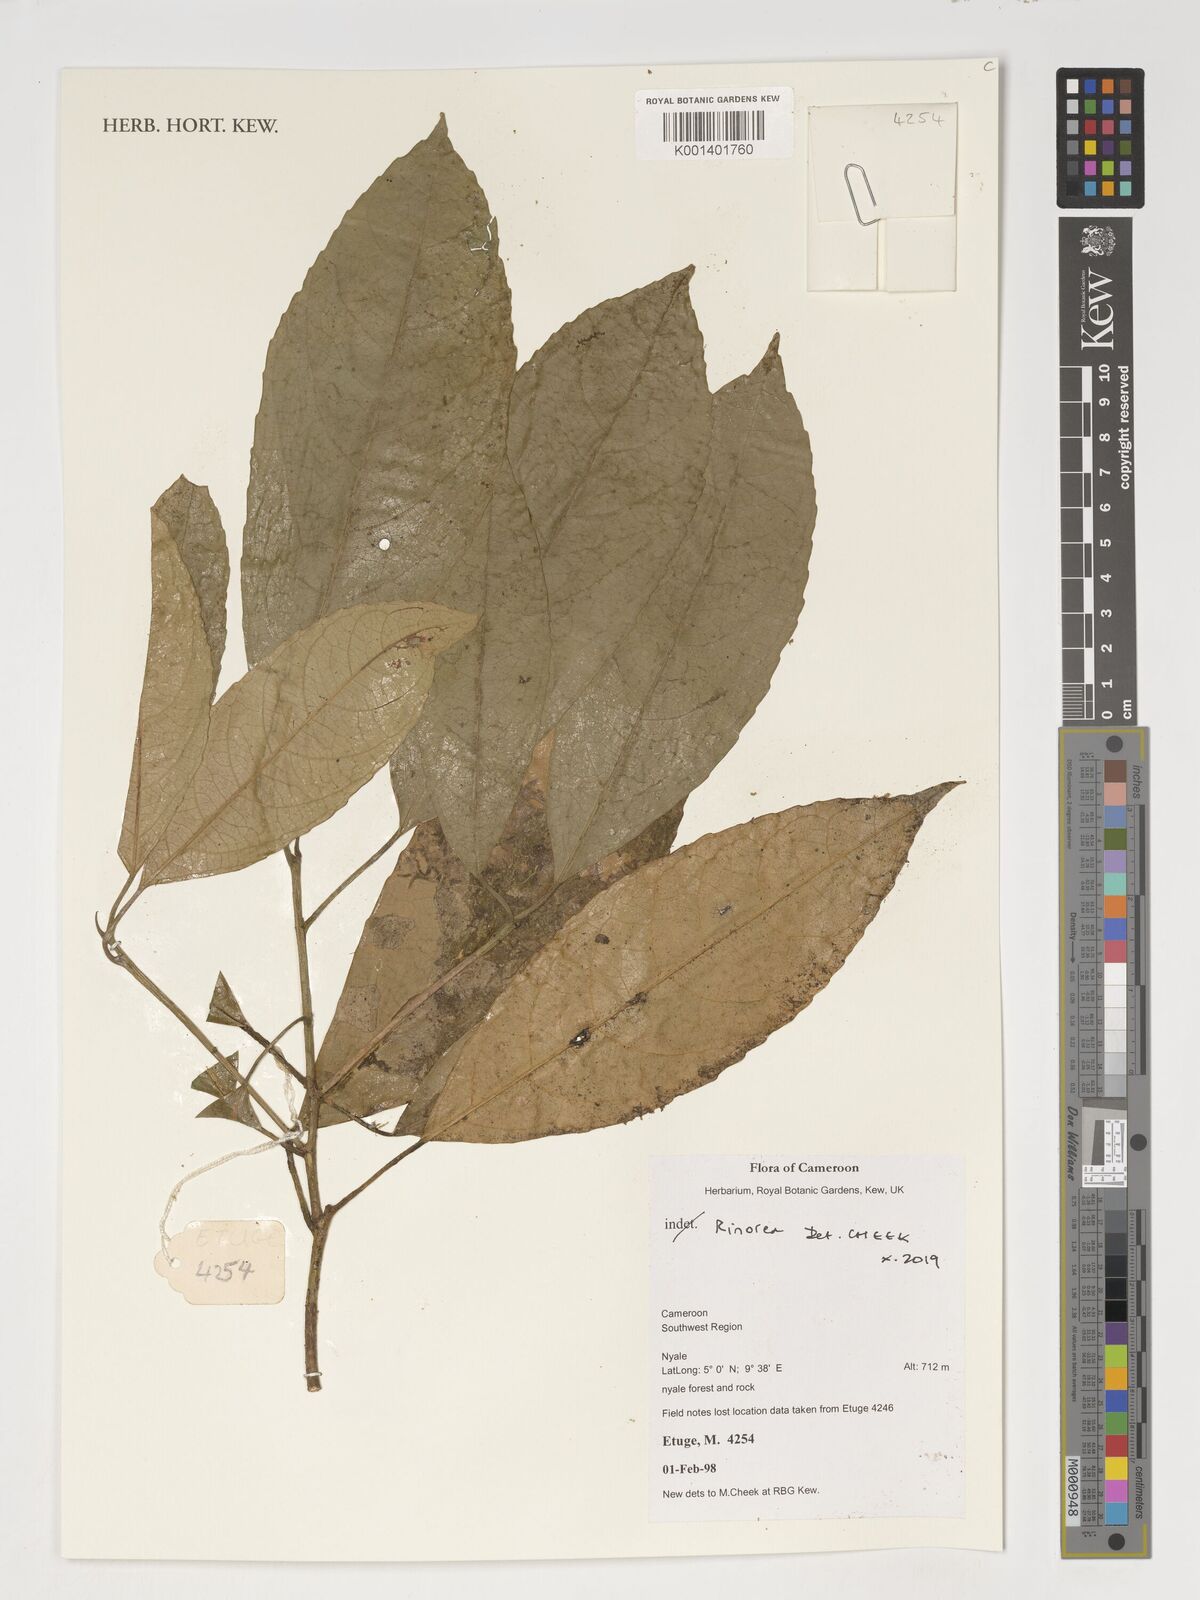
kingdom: Plantae
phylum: Tracheophyta
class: Magnoliopsida
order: Malpighiales
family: Violaceae
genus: Rinorea
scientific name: Rinorea
